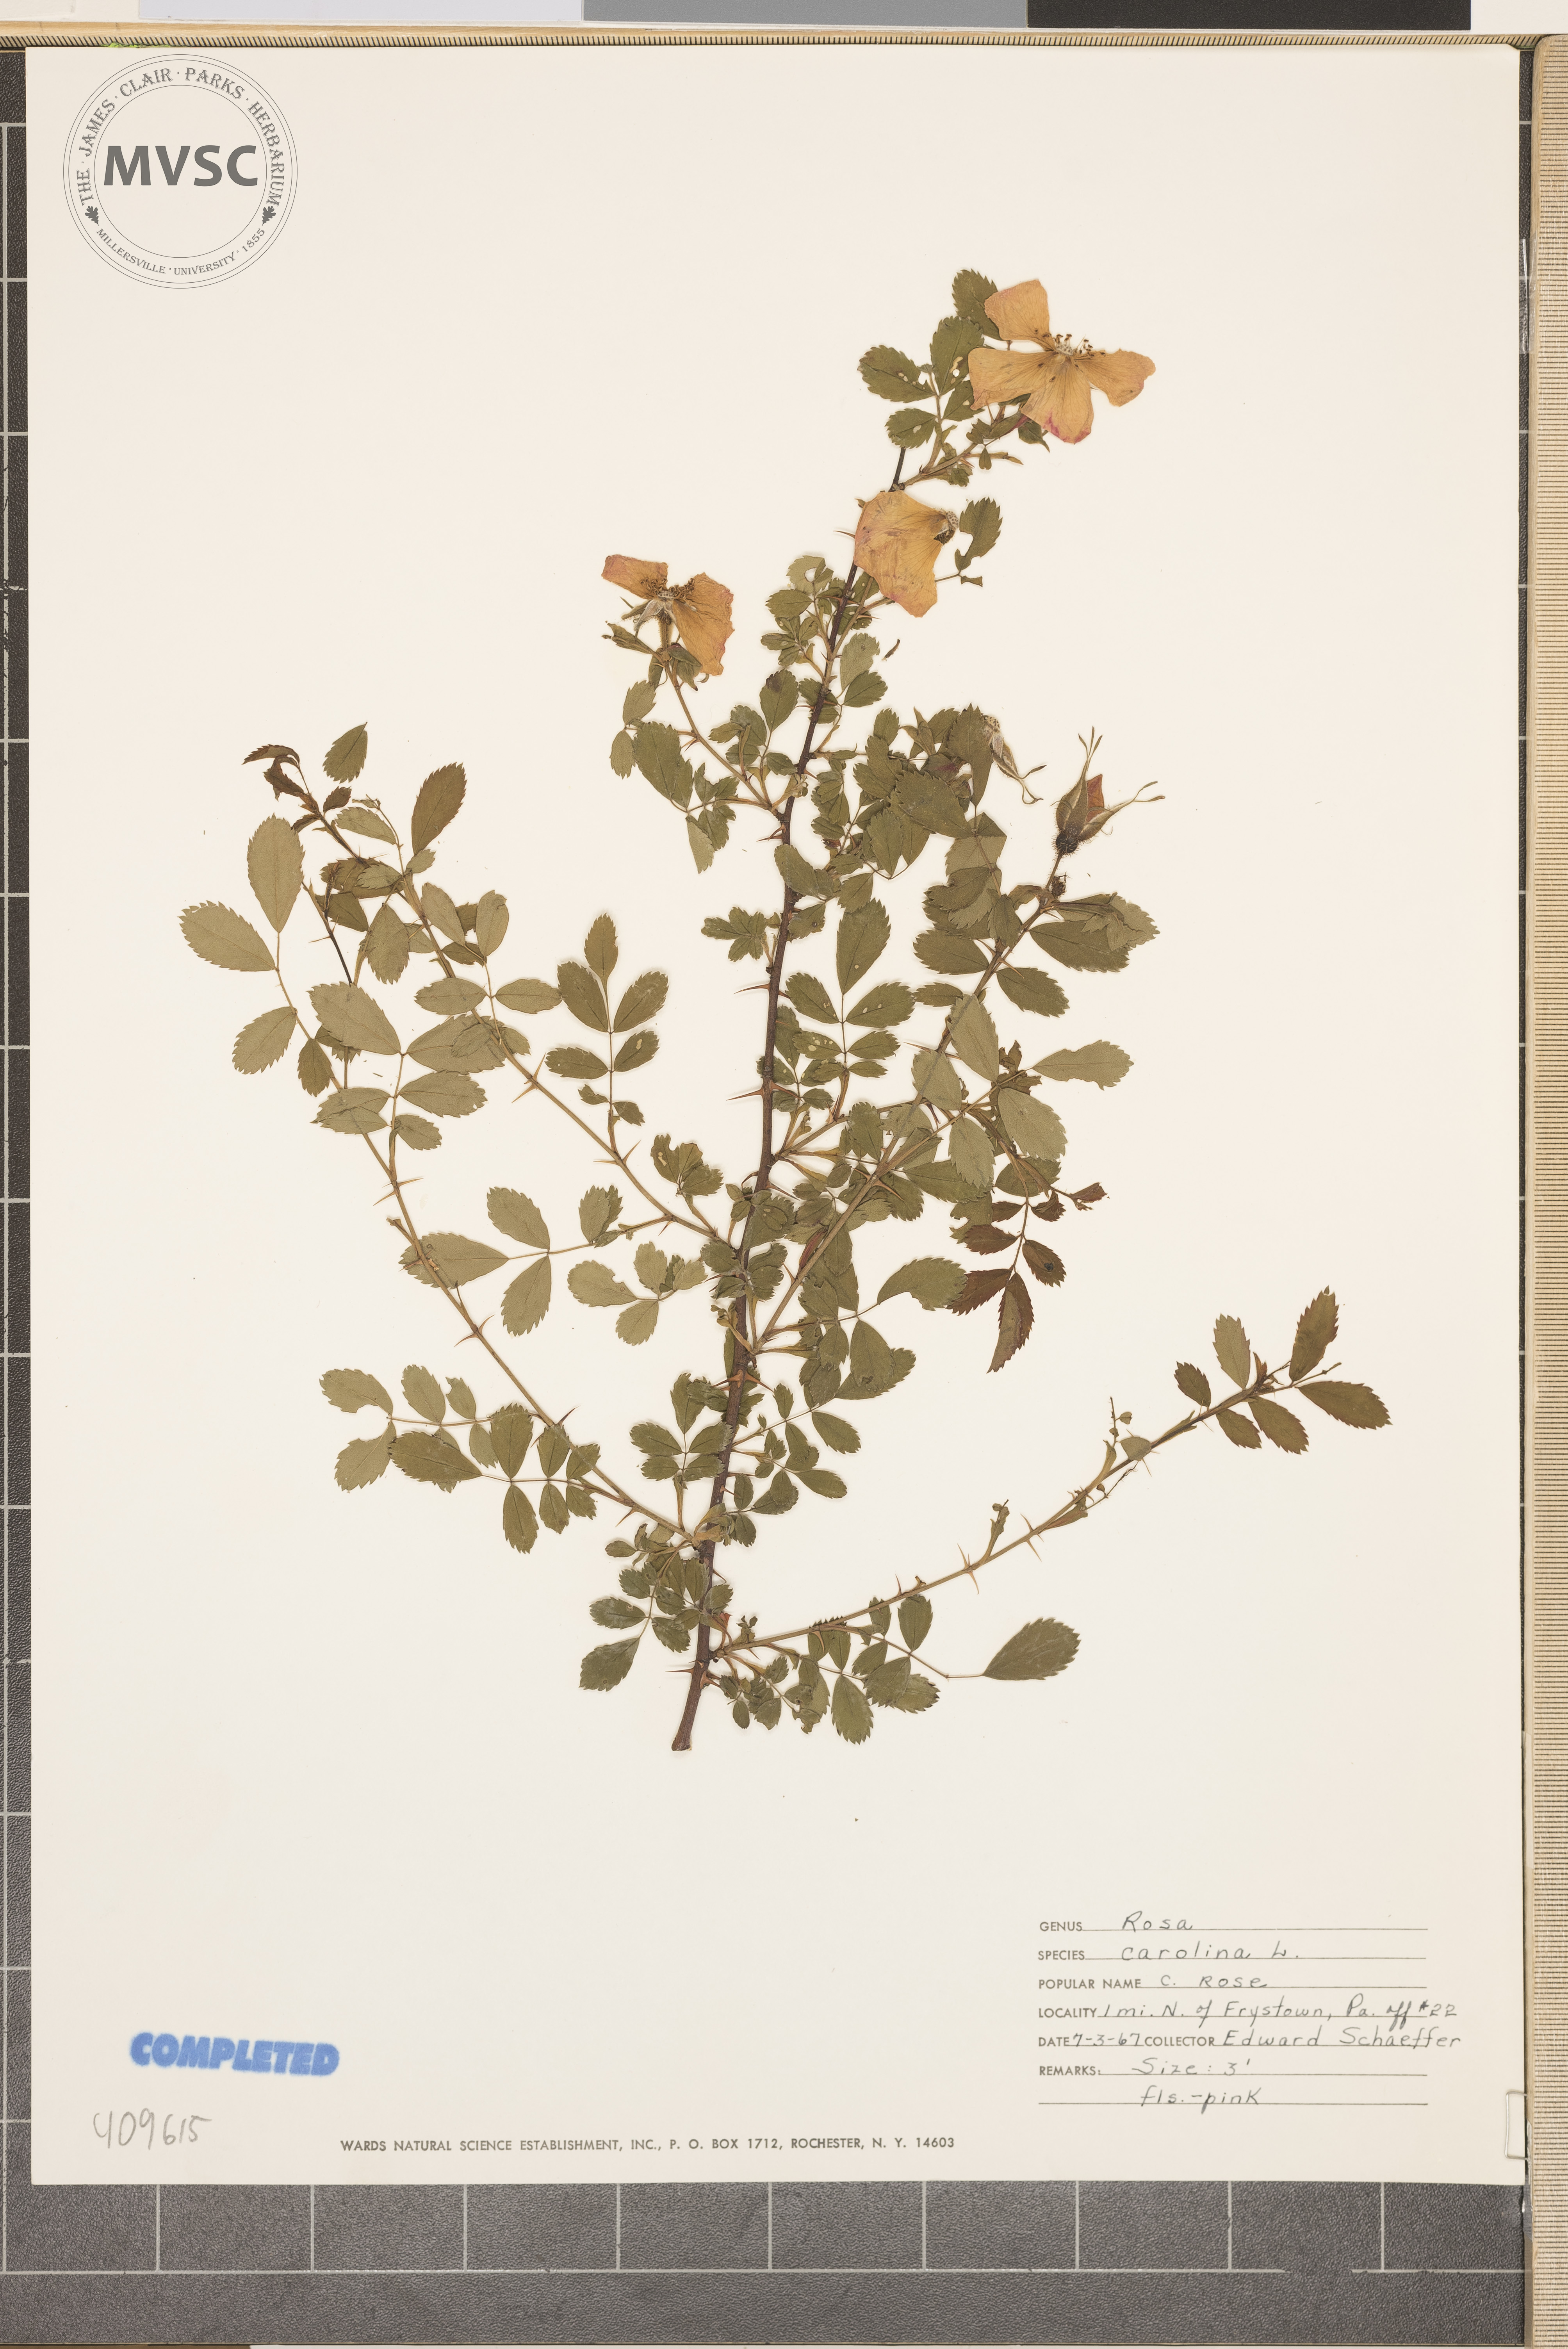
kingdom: Plantae
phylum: Tracheophyta
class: Magnoliopsida
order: Rosales
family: Rosaceae
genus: Rosa
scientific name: Rosa carolina
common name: Pasture rose
